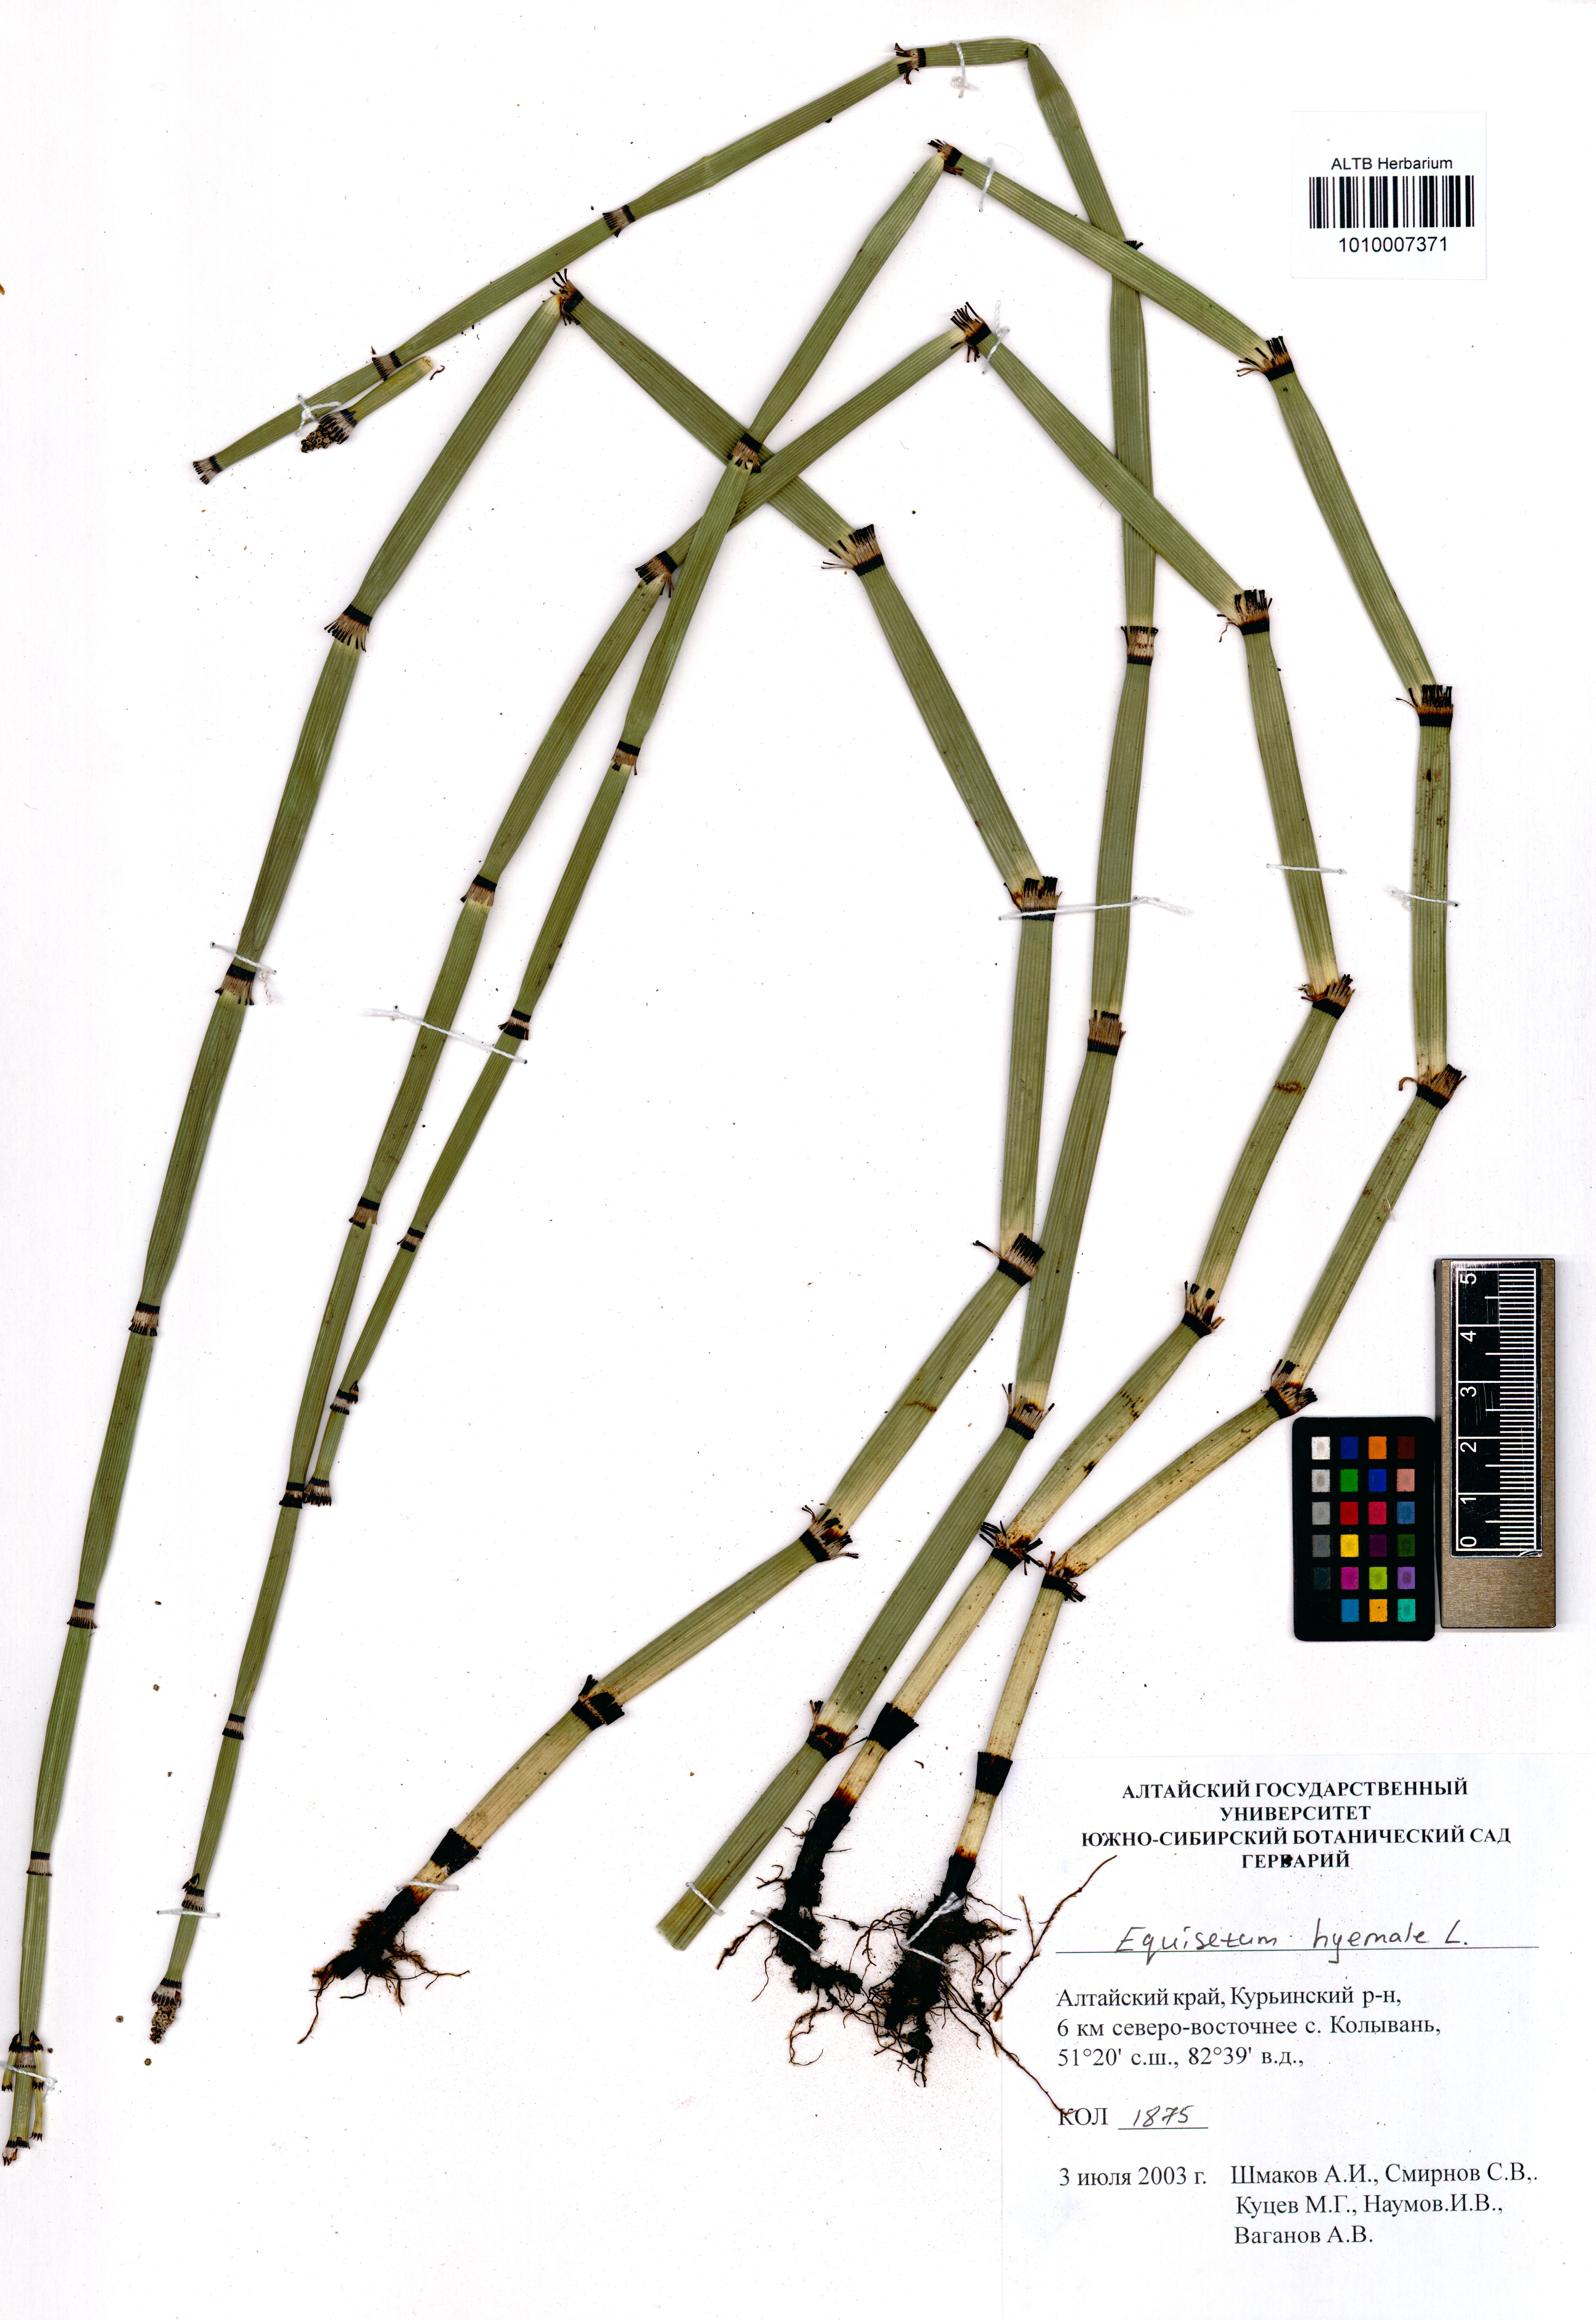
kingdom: Plantae
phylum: Tracheophyta
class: Polypodiopsida
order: Equisetales
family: Equisetaceae
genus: Equisetum
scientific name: Equisetum hyemale
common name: Rough horsetail
